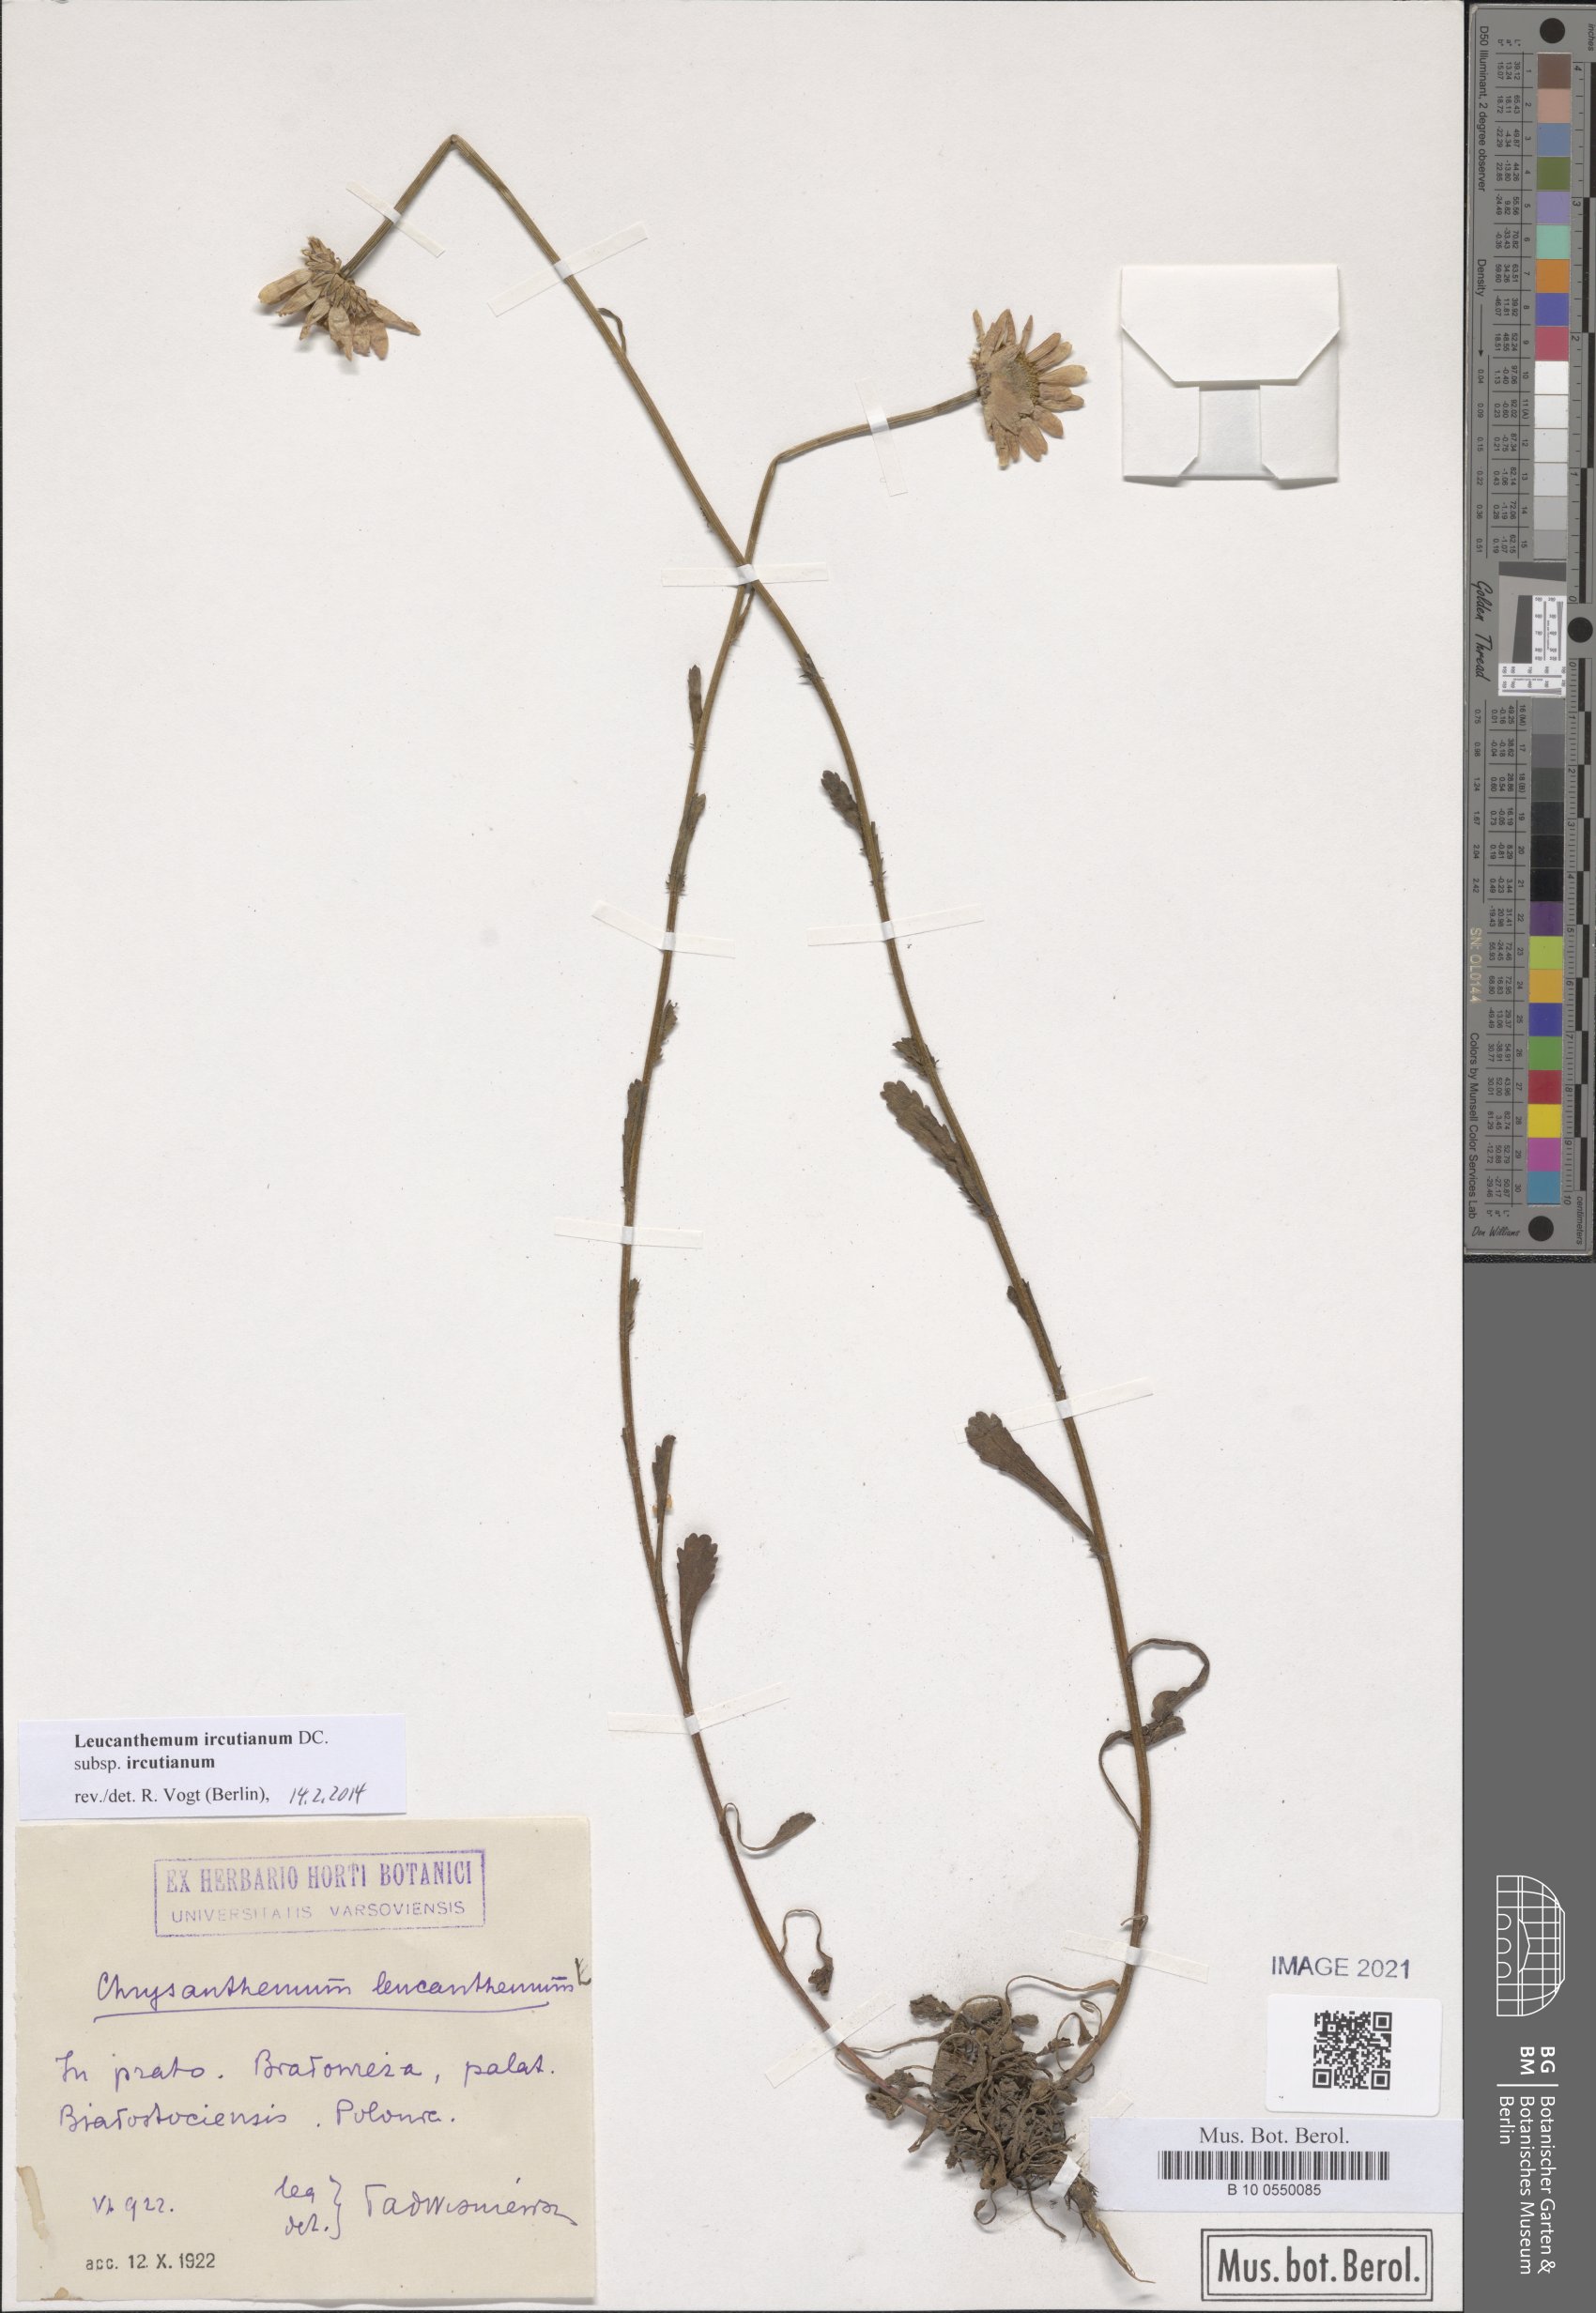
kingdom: Plantae
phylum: Tracheophyta
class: Magnoliopsida
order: Asterales
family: Asteraceae
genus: Leucanthemum
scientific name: Leucanthemum ircutianum
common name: Daisy
